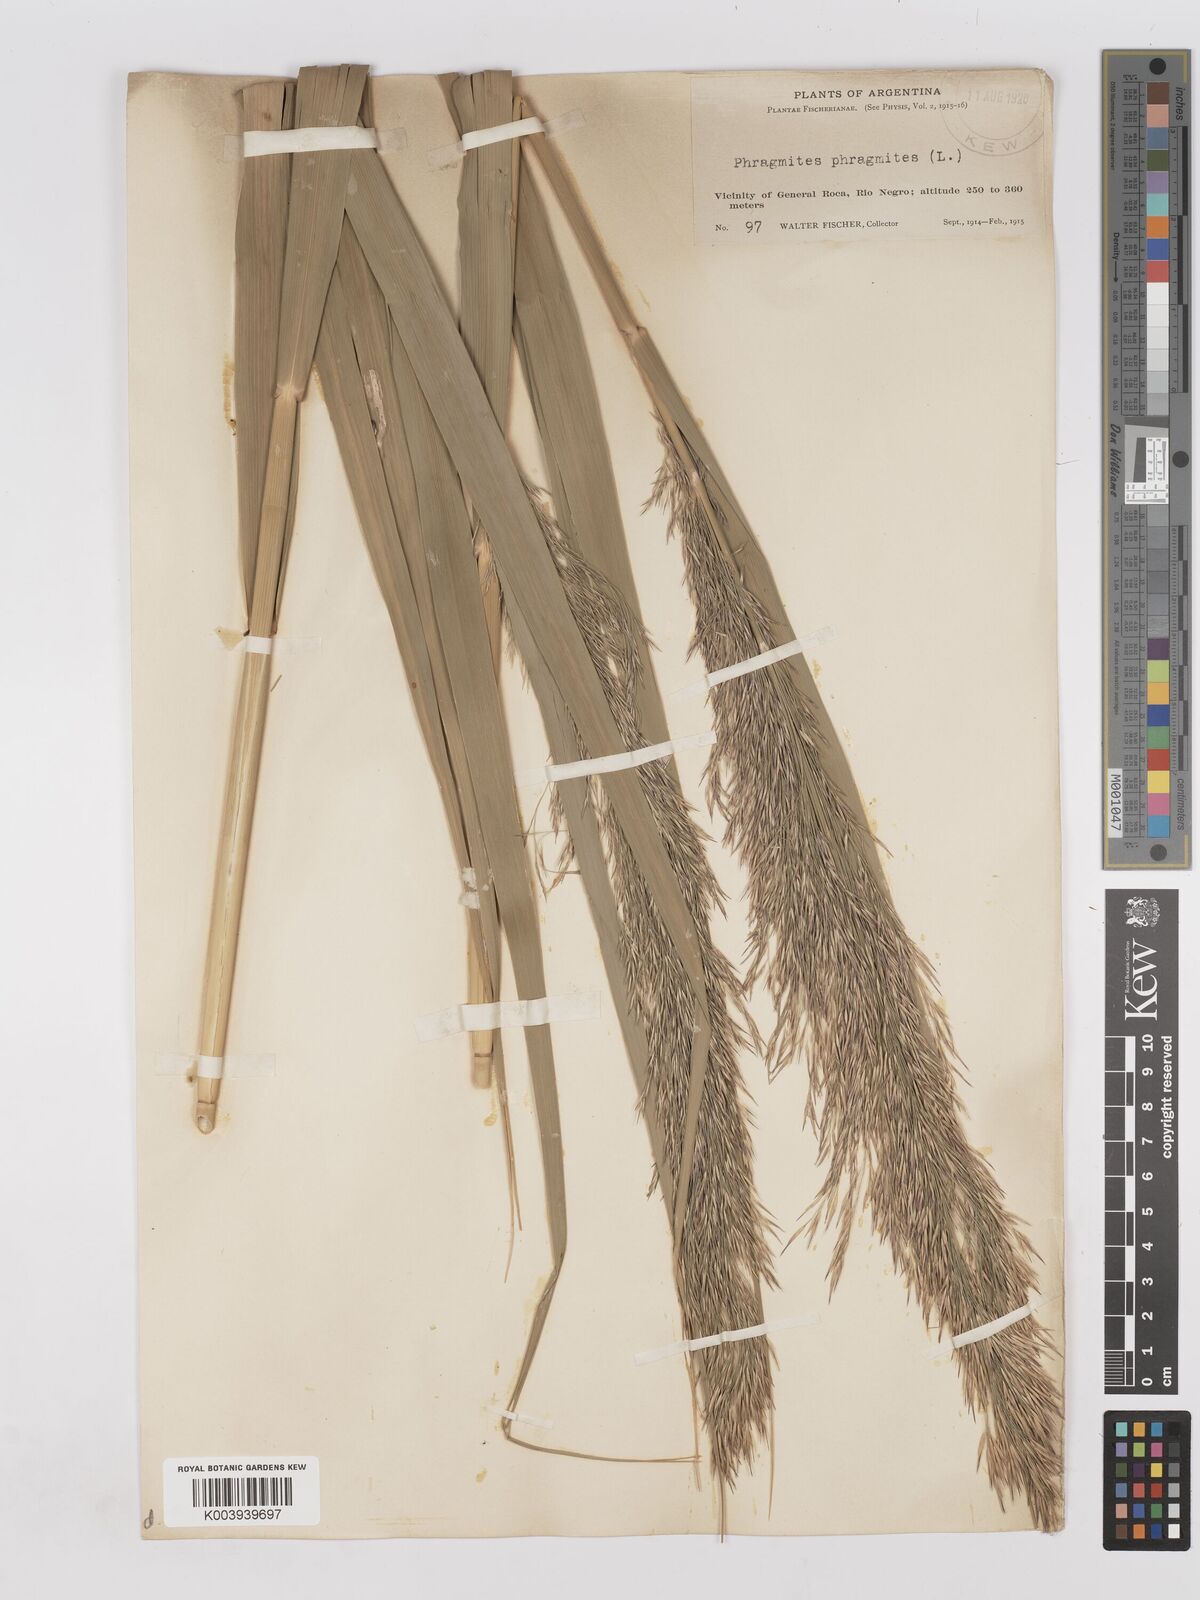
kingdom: Plantae
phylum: Tracheophyta
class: Liliopsida
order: Poales
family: Poaceae
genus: Phragmites
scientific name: Phragmites australis
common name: Common reed
